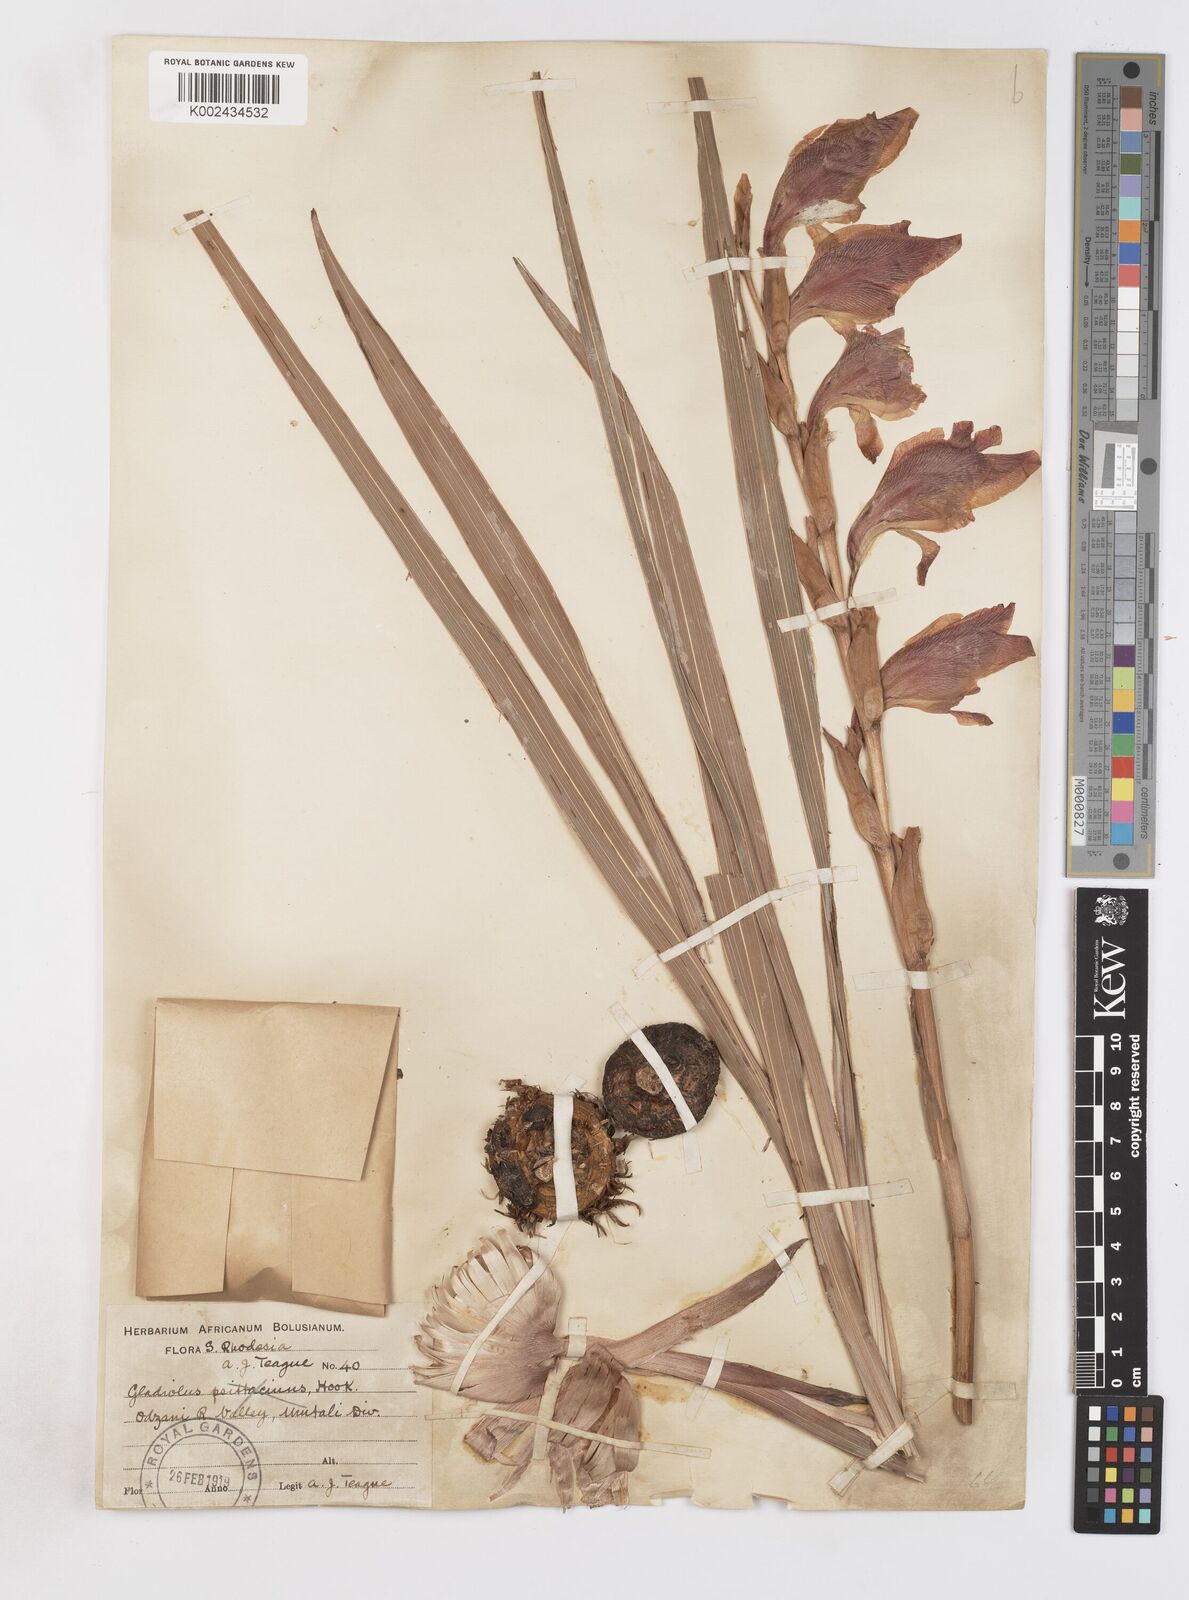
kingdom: Plantae
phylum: Tracheophyta
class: Liliopsida
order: Asparagales
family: Iridaceae
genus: Gladiolus
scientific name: Gladiolus dalenii
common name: Cornflag
